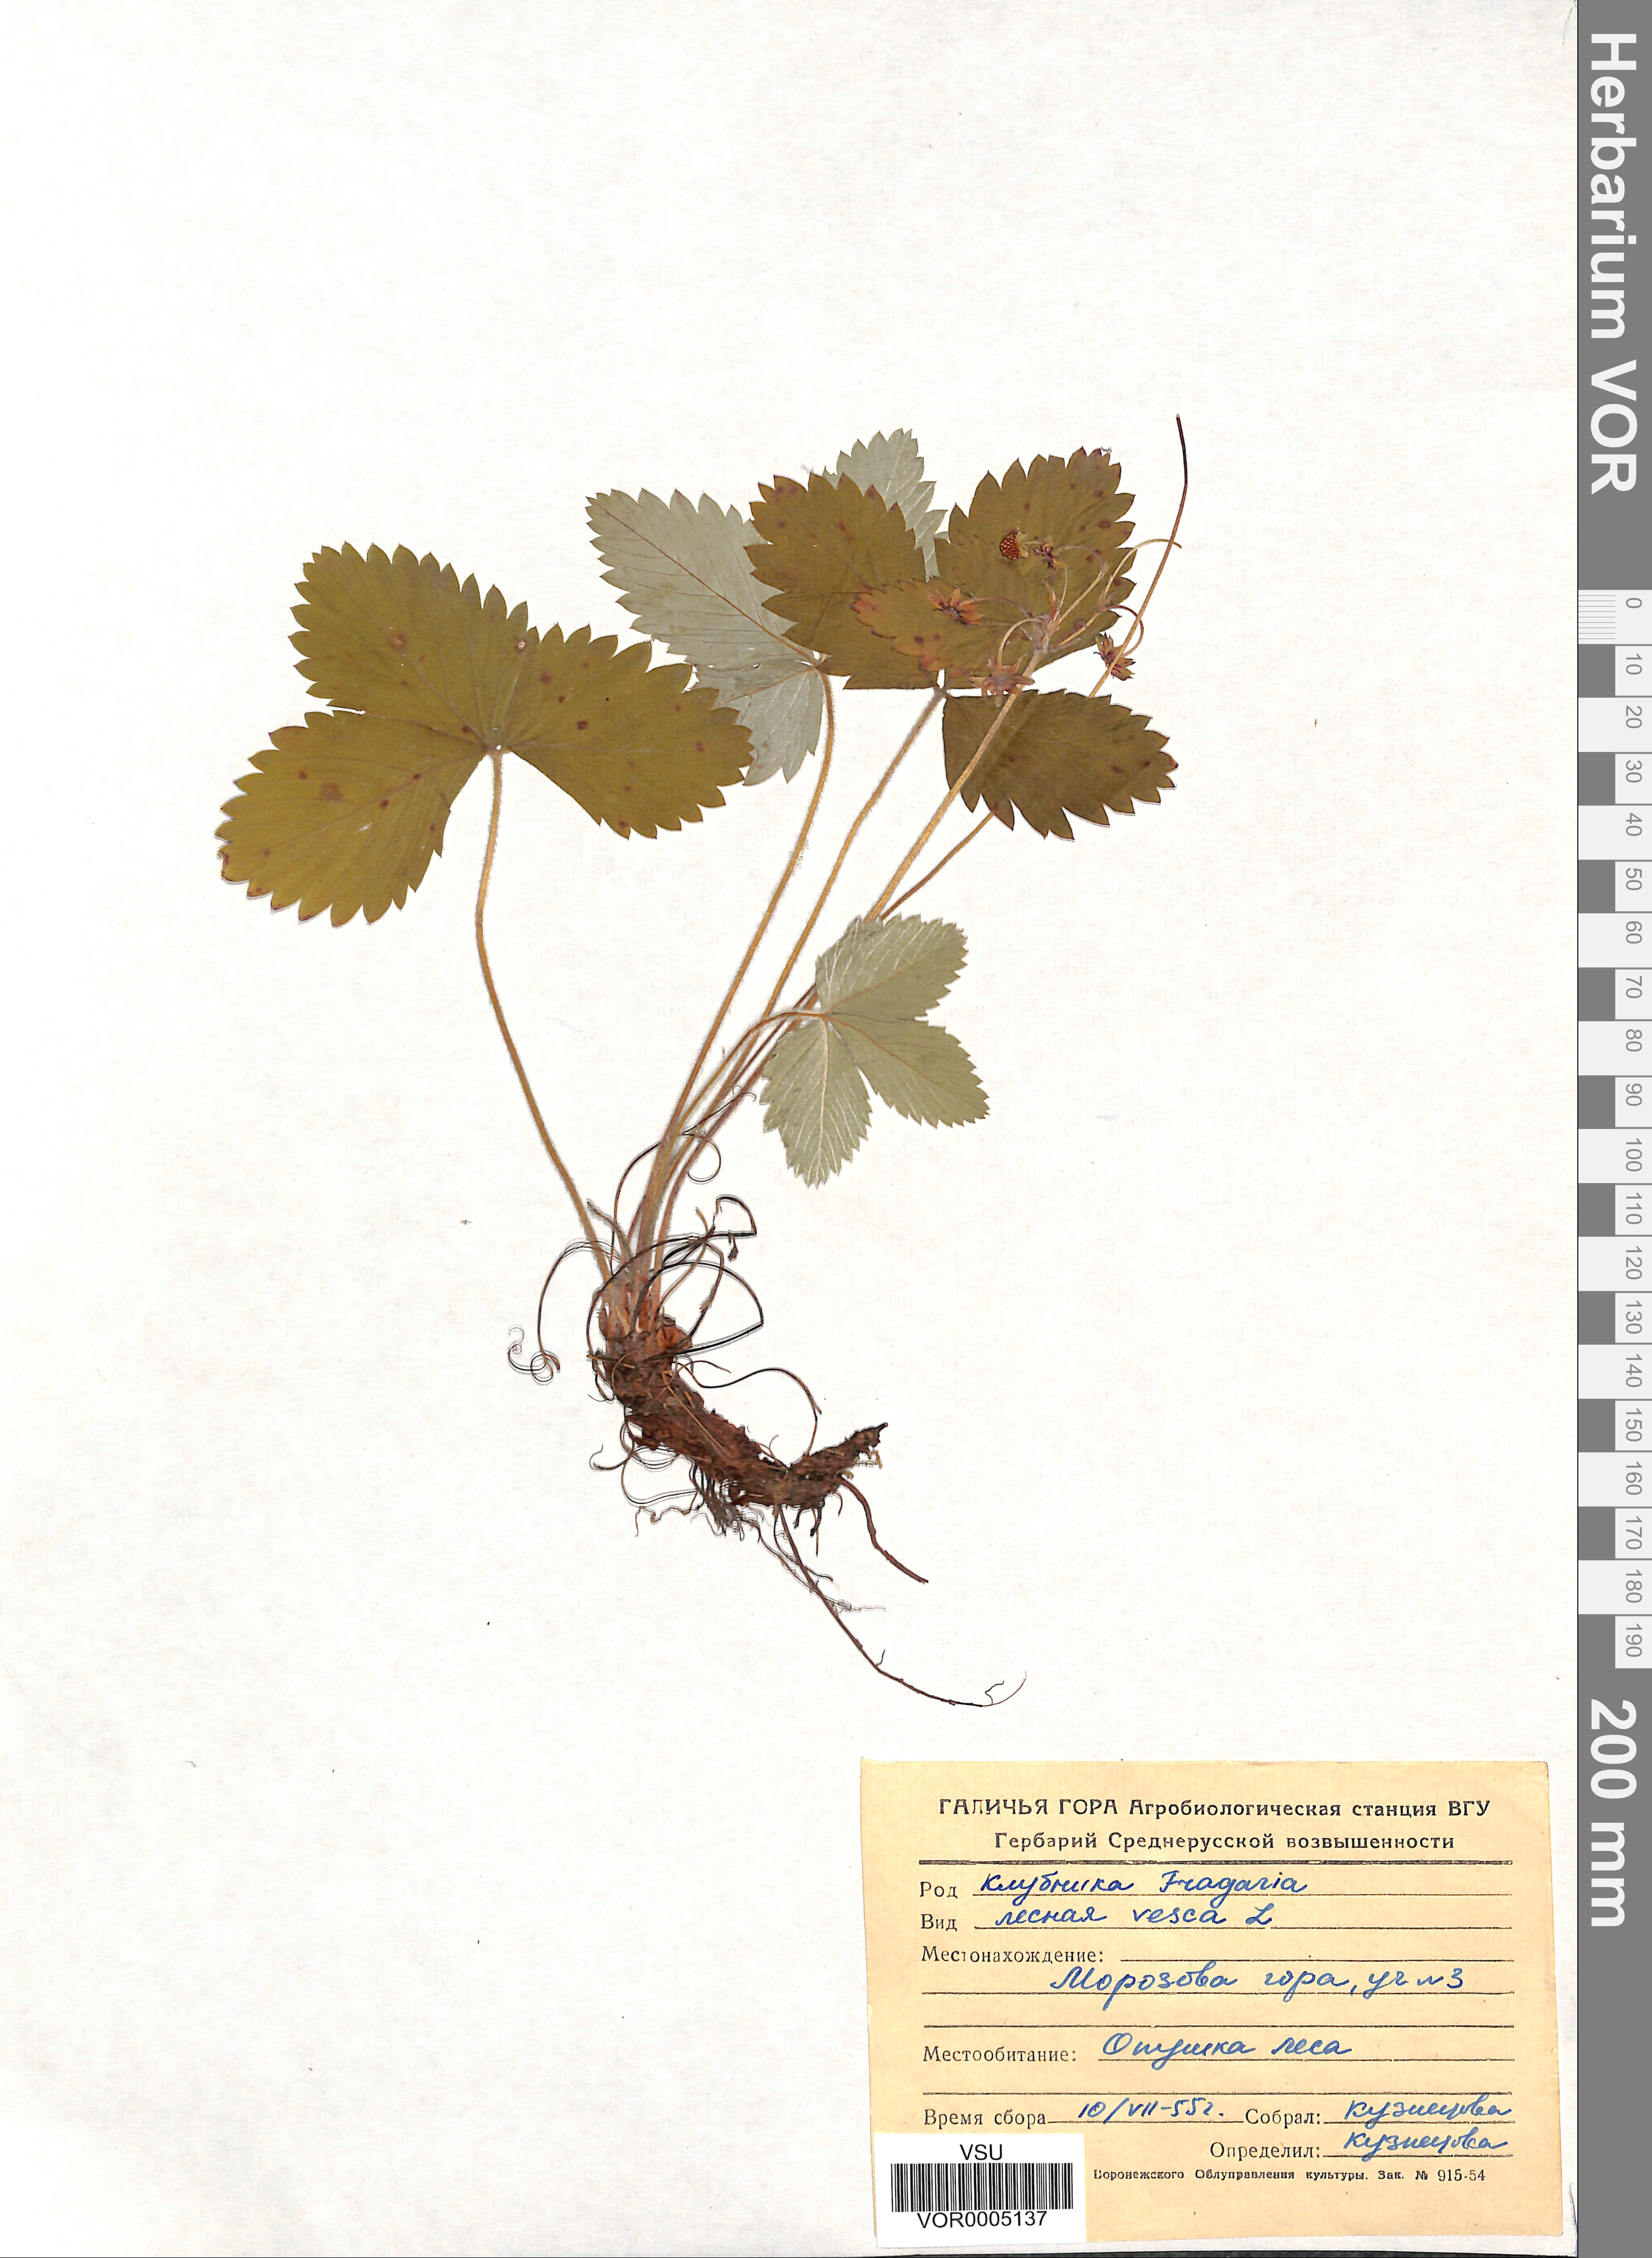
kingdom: Plantae
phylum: Tracheophyta
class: Magnoliopsida
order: Rosales
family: Rosaceae
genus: Fragaria
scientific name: Fragaria vesca
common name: Wild strawberry
